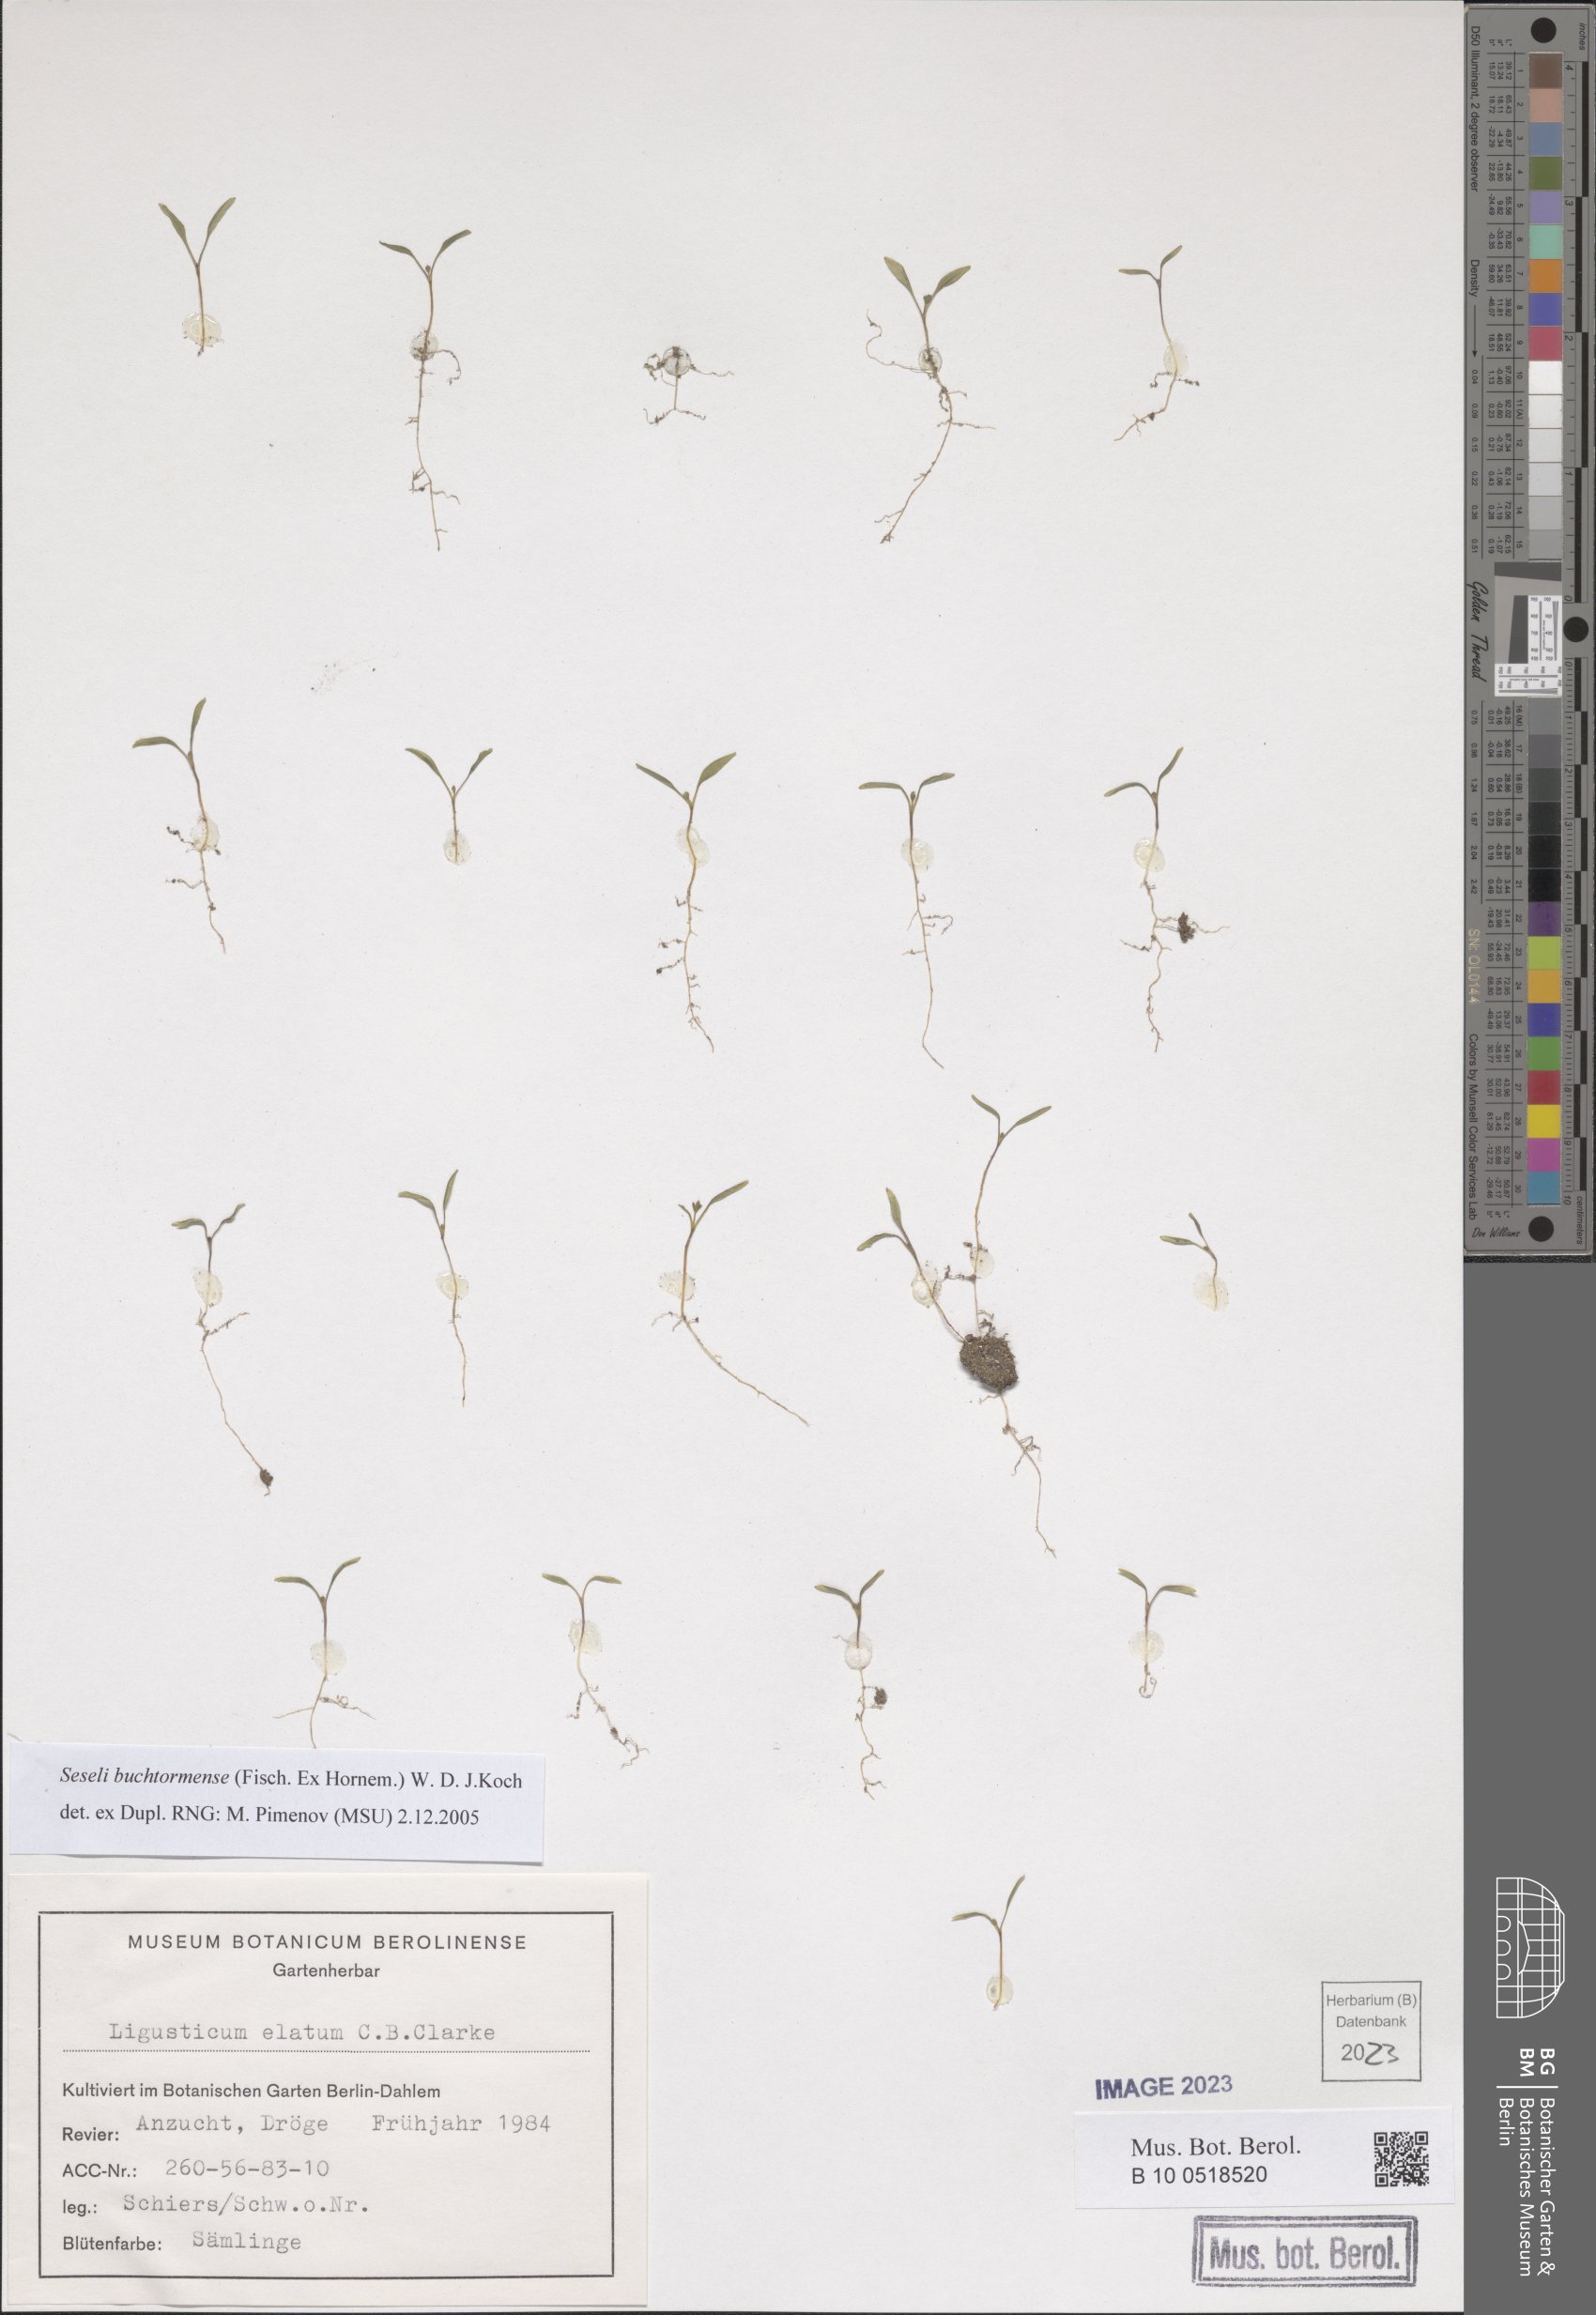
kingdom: Plantae
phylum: Tracheophyta
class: Magnoliopsida
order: Apiales
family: Apiaceae
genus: Seseli
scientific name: Seseli buchtormense
